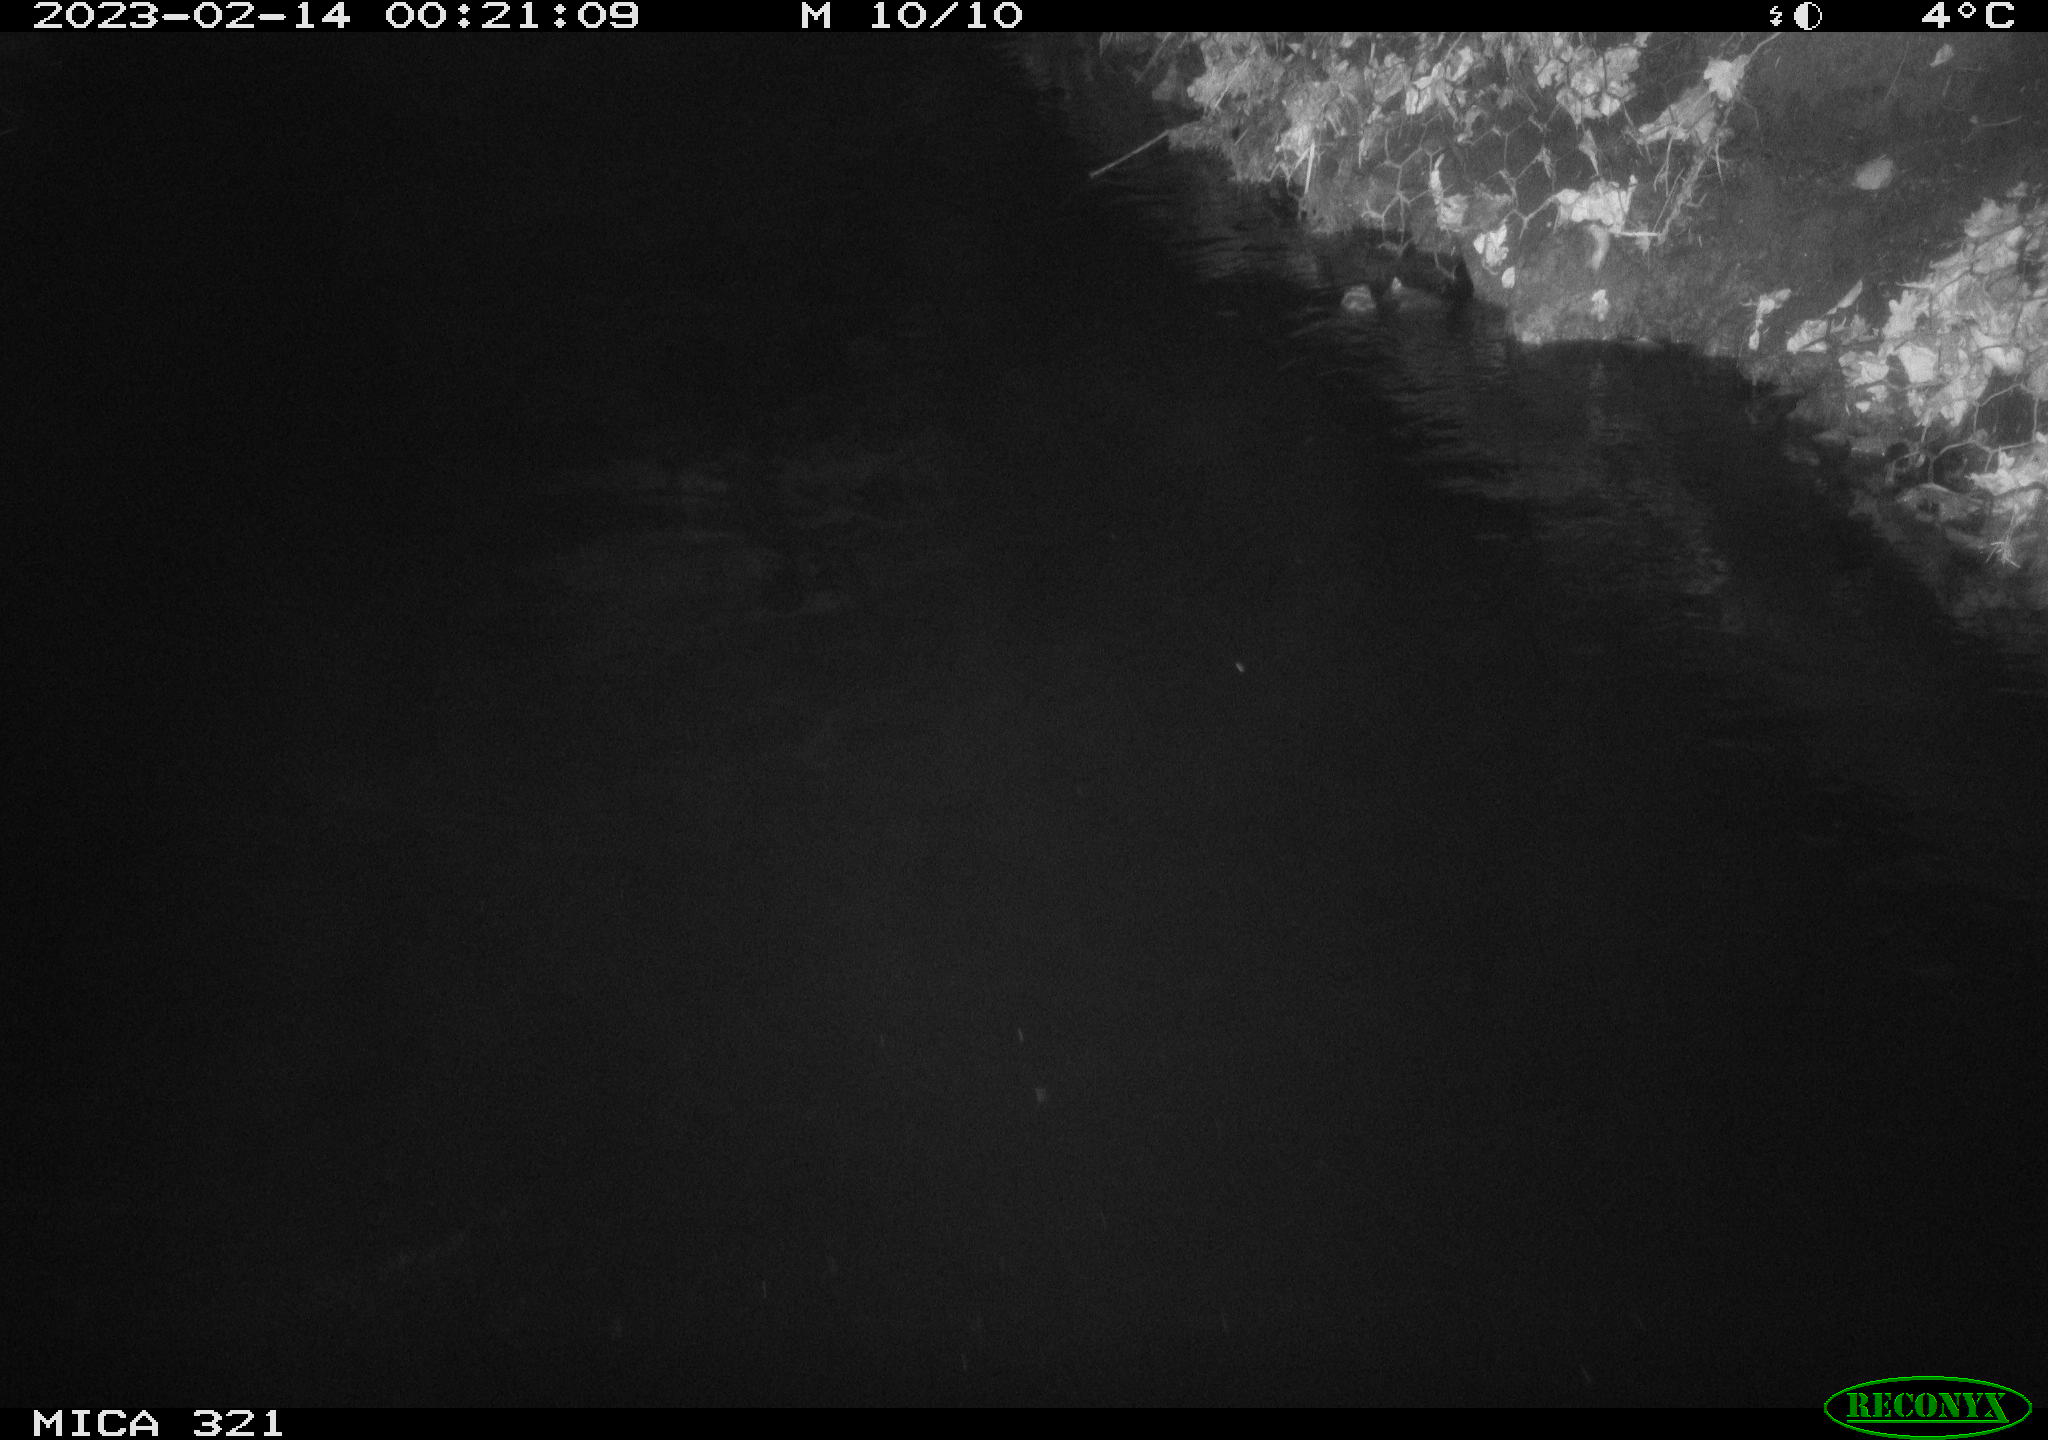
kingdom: Animalia
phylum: Chordata
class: Mammalia
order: Rodentia
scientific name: Rodentia
